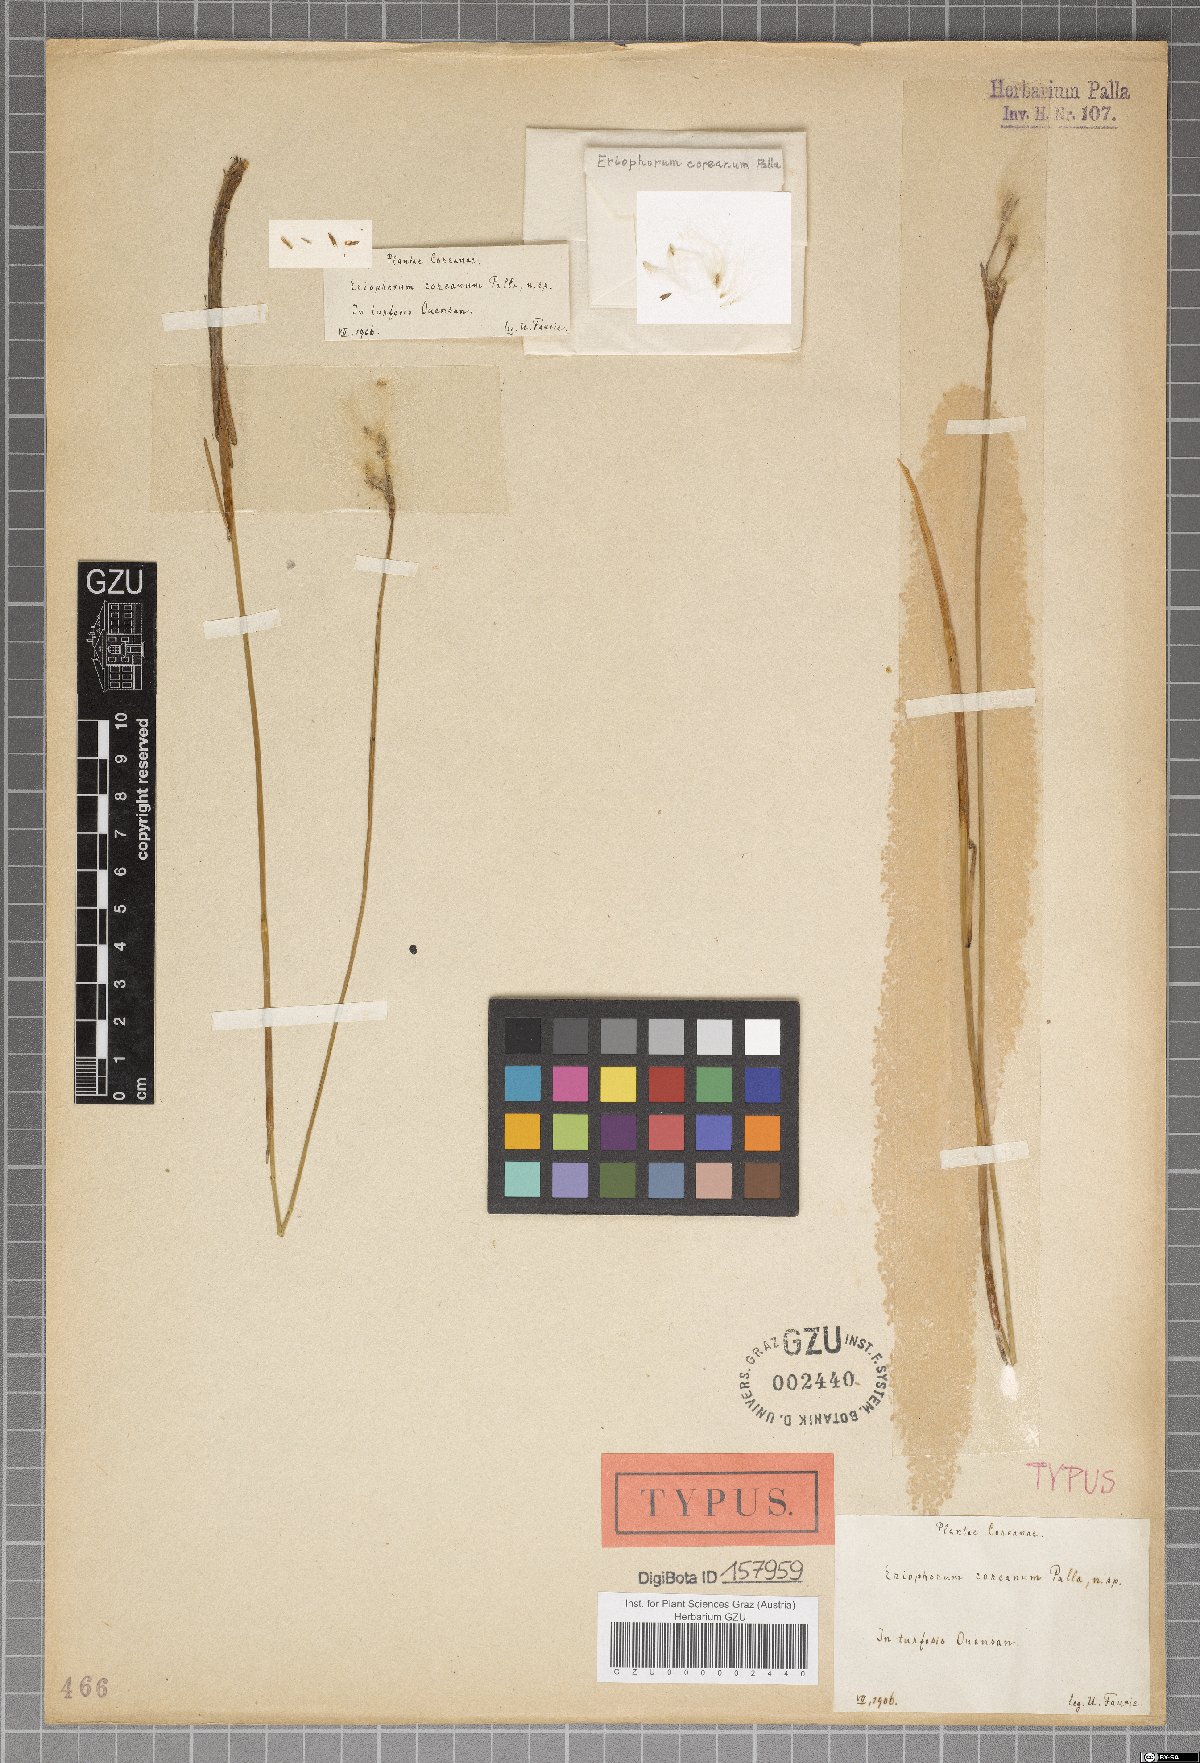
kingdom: Plantae
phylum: Tracheophyta
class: Liliopsida
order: Poales
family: Cyperaceae
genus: Eriophorum
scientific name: Eriophorum gracile
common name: Slender cottongrass
